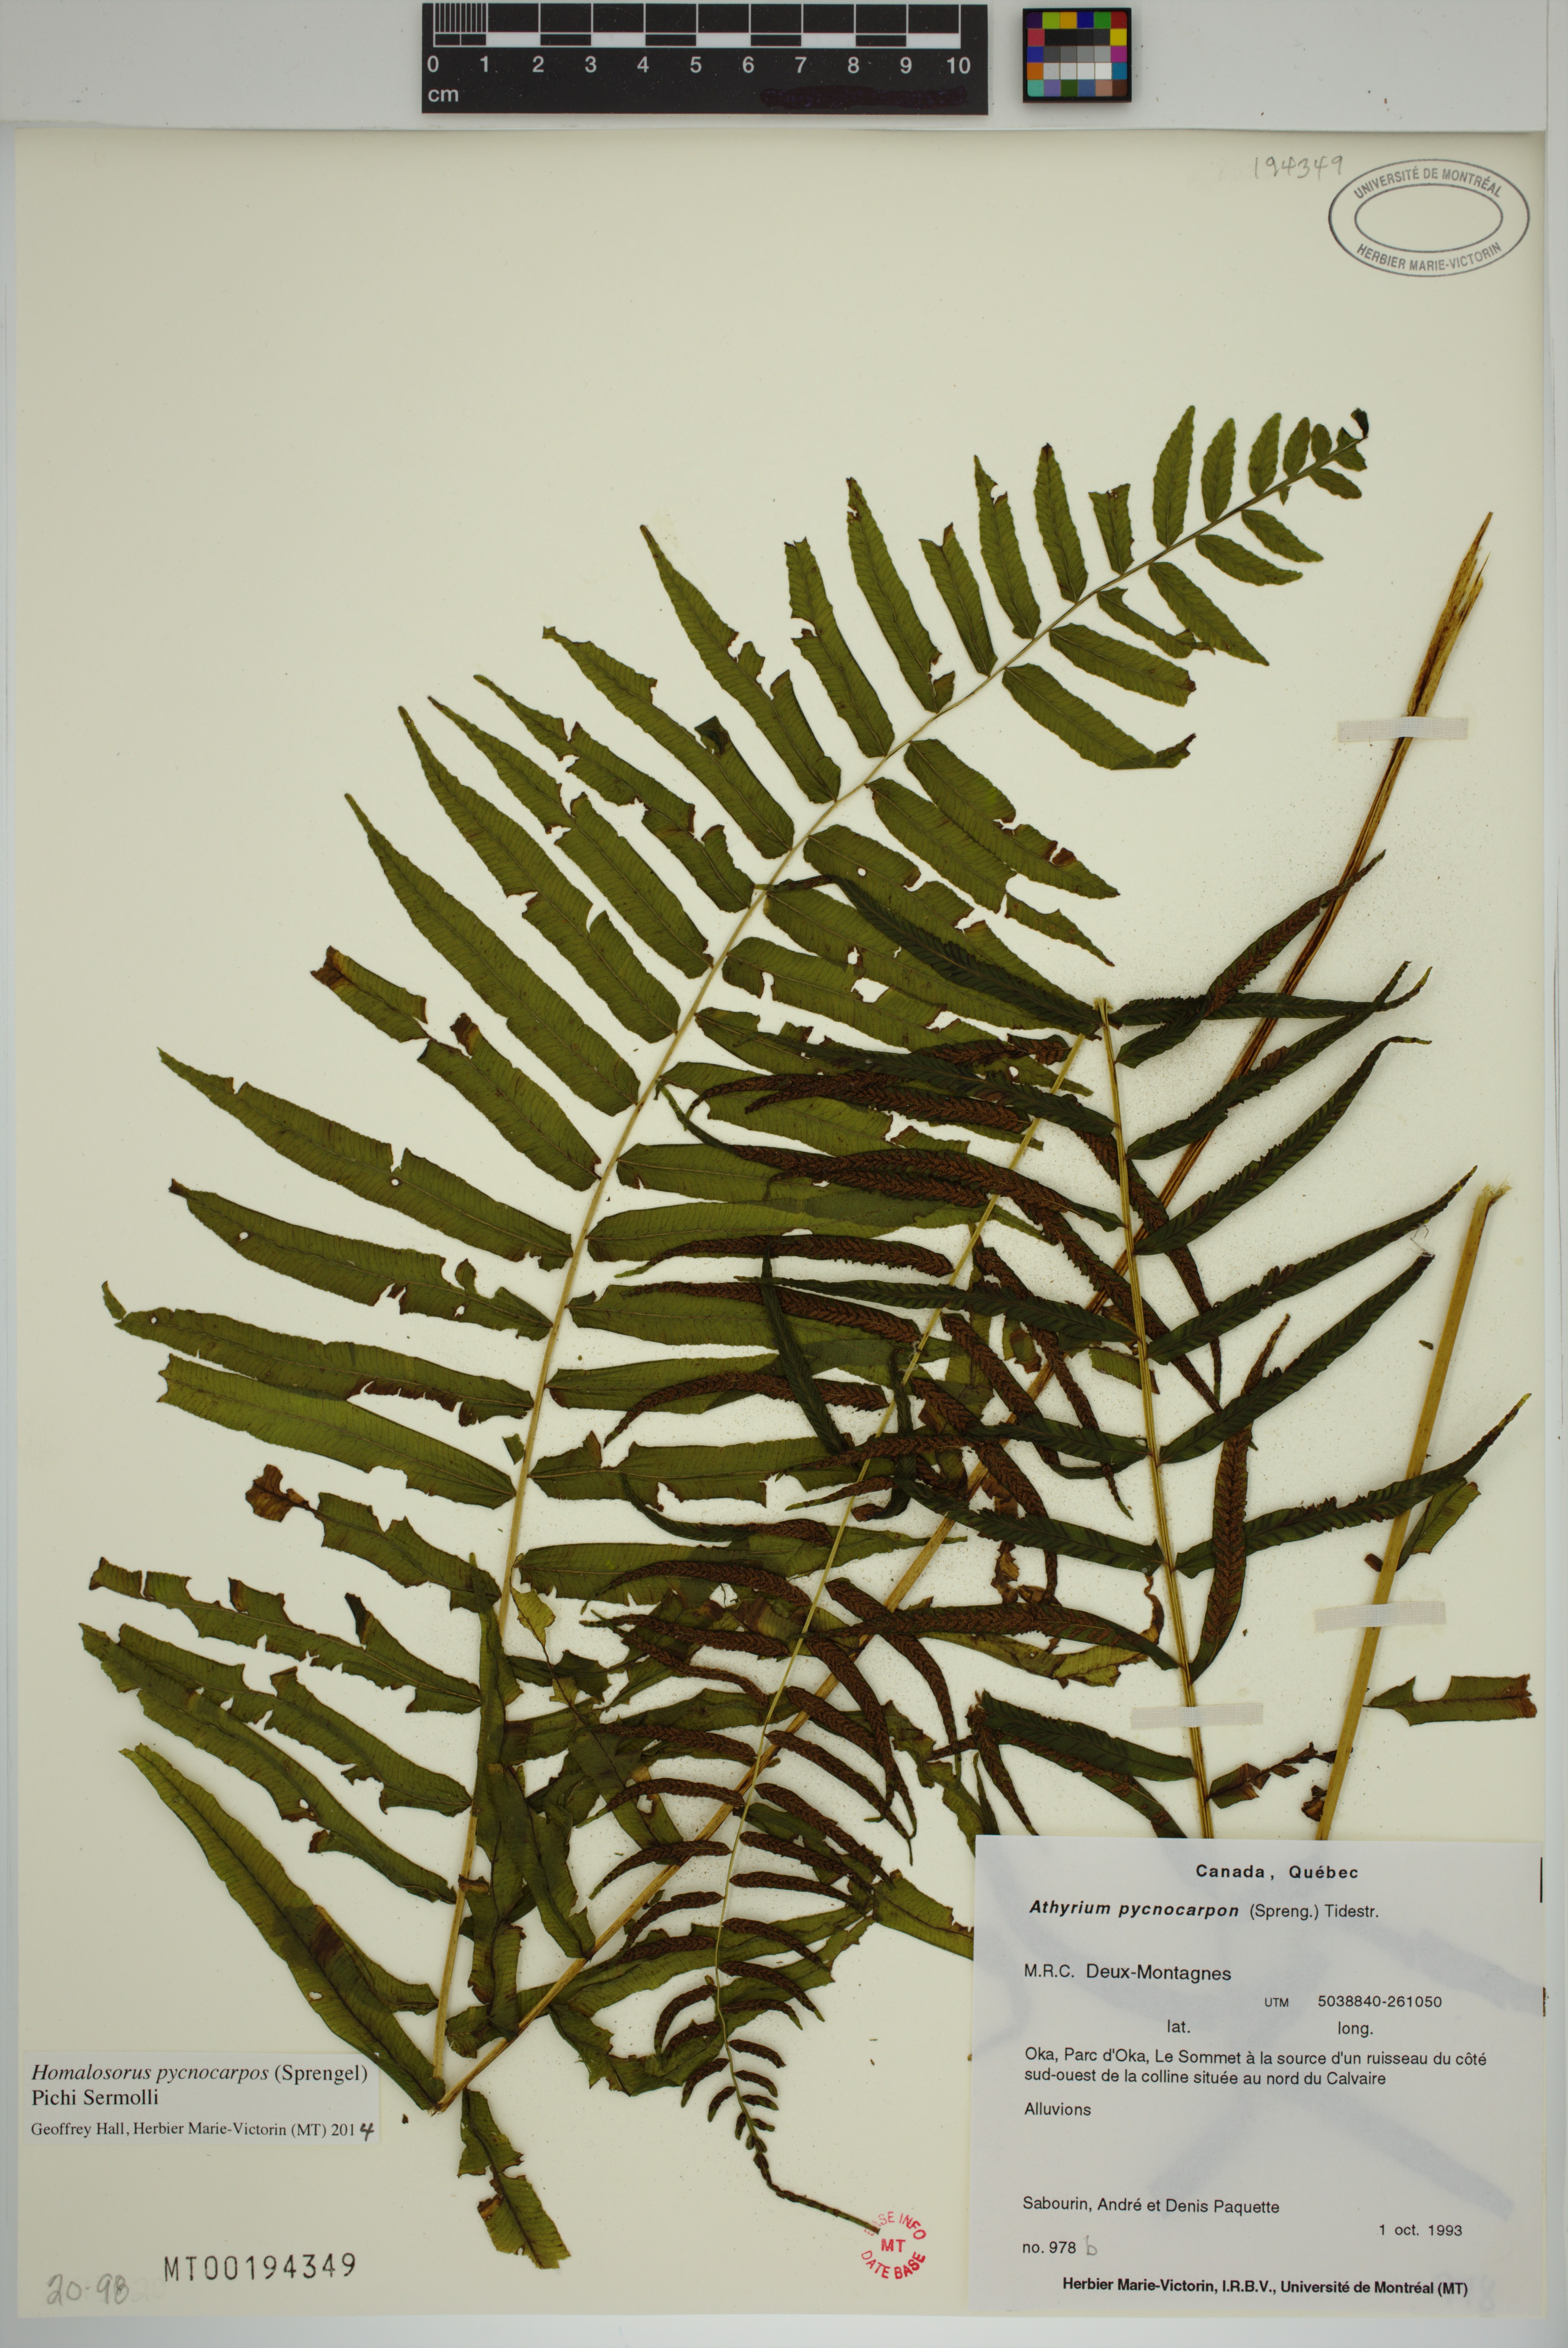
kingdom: Plantae
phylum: Tracheophyta
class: Polypodiopsida
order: Polypodiales
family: Diplaziopsidaceae
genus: Homalosorus
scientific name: Homalosorus pycnocarpos
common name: Glade fern
